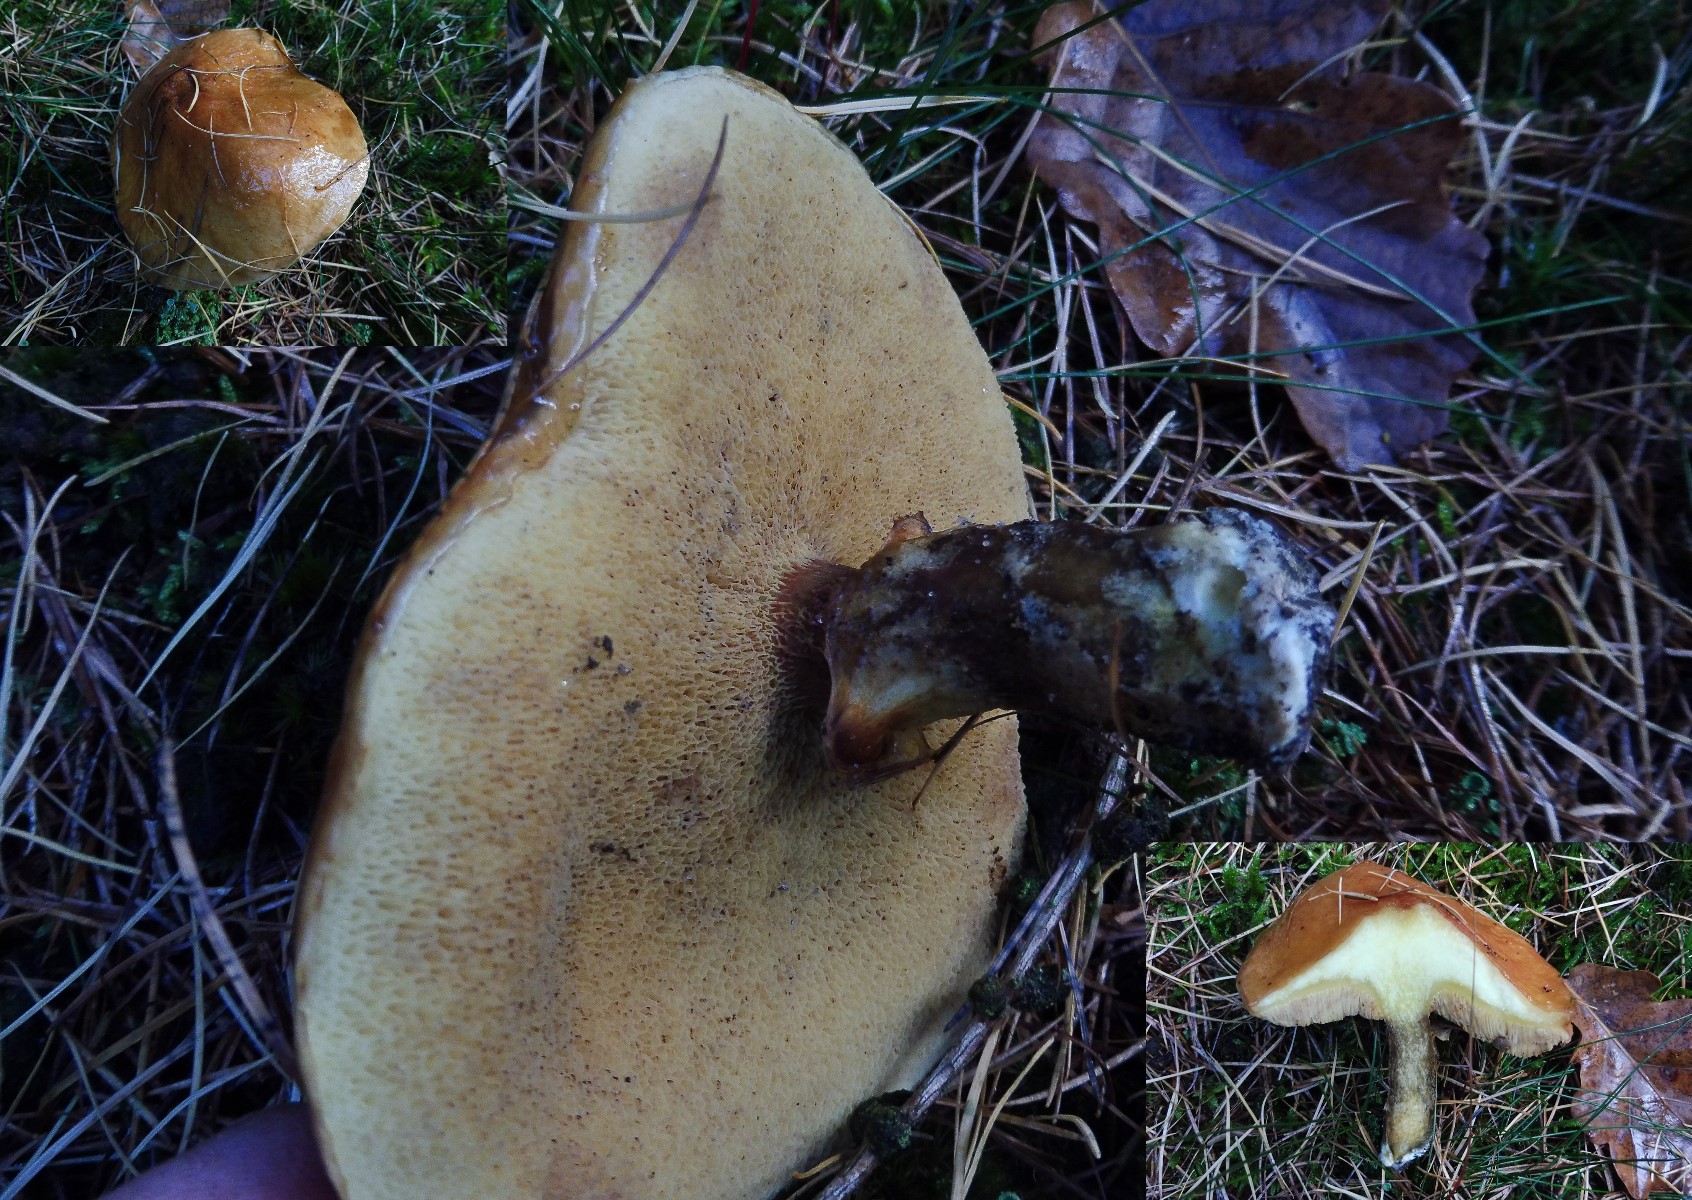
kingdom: Fungi
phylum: Basidiomycota
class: Agaricomycetes
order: Boletales
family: Suillaceae
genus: Suillus
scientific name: Suillus grevillei
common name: lærke-slimrørhat
